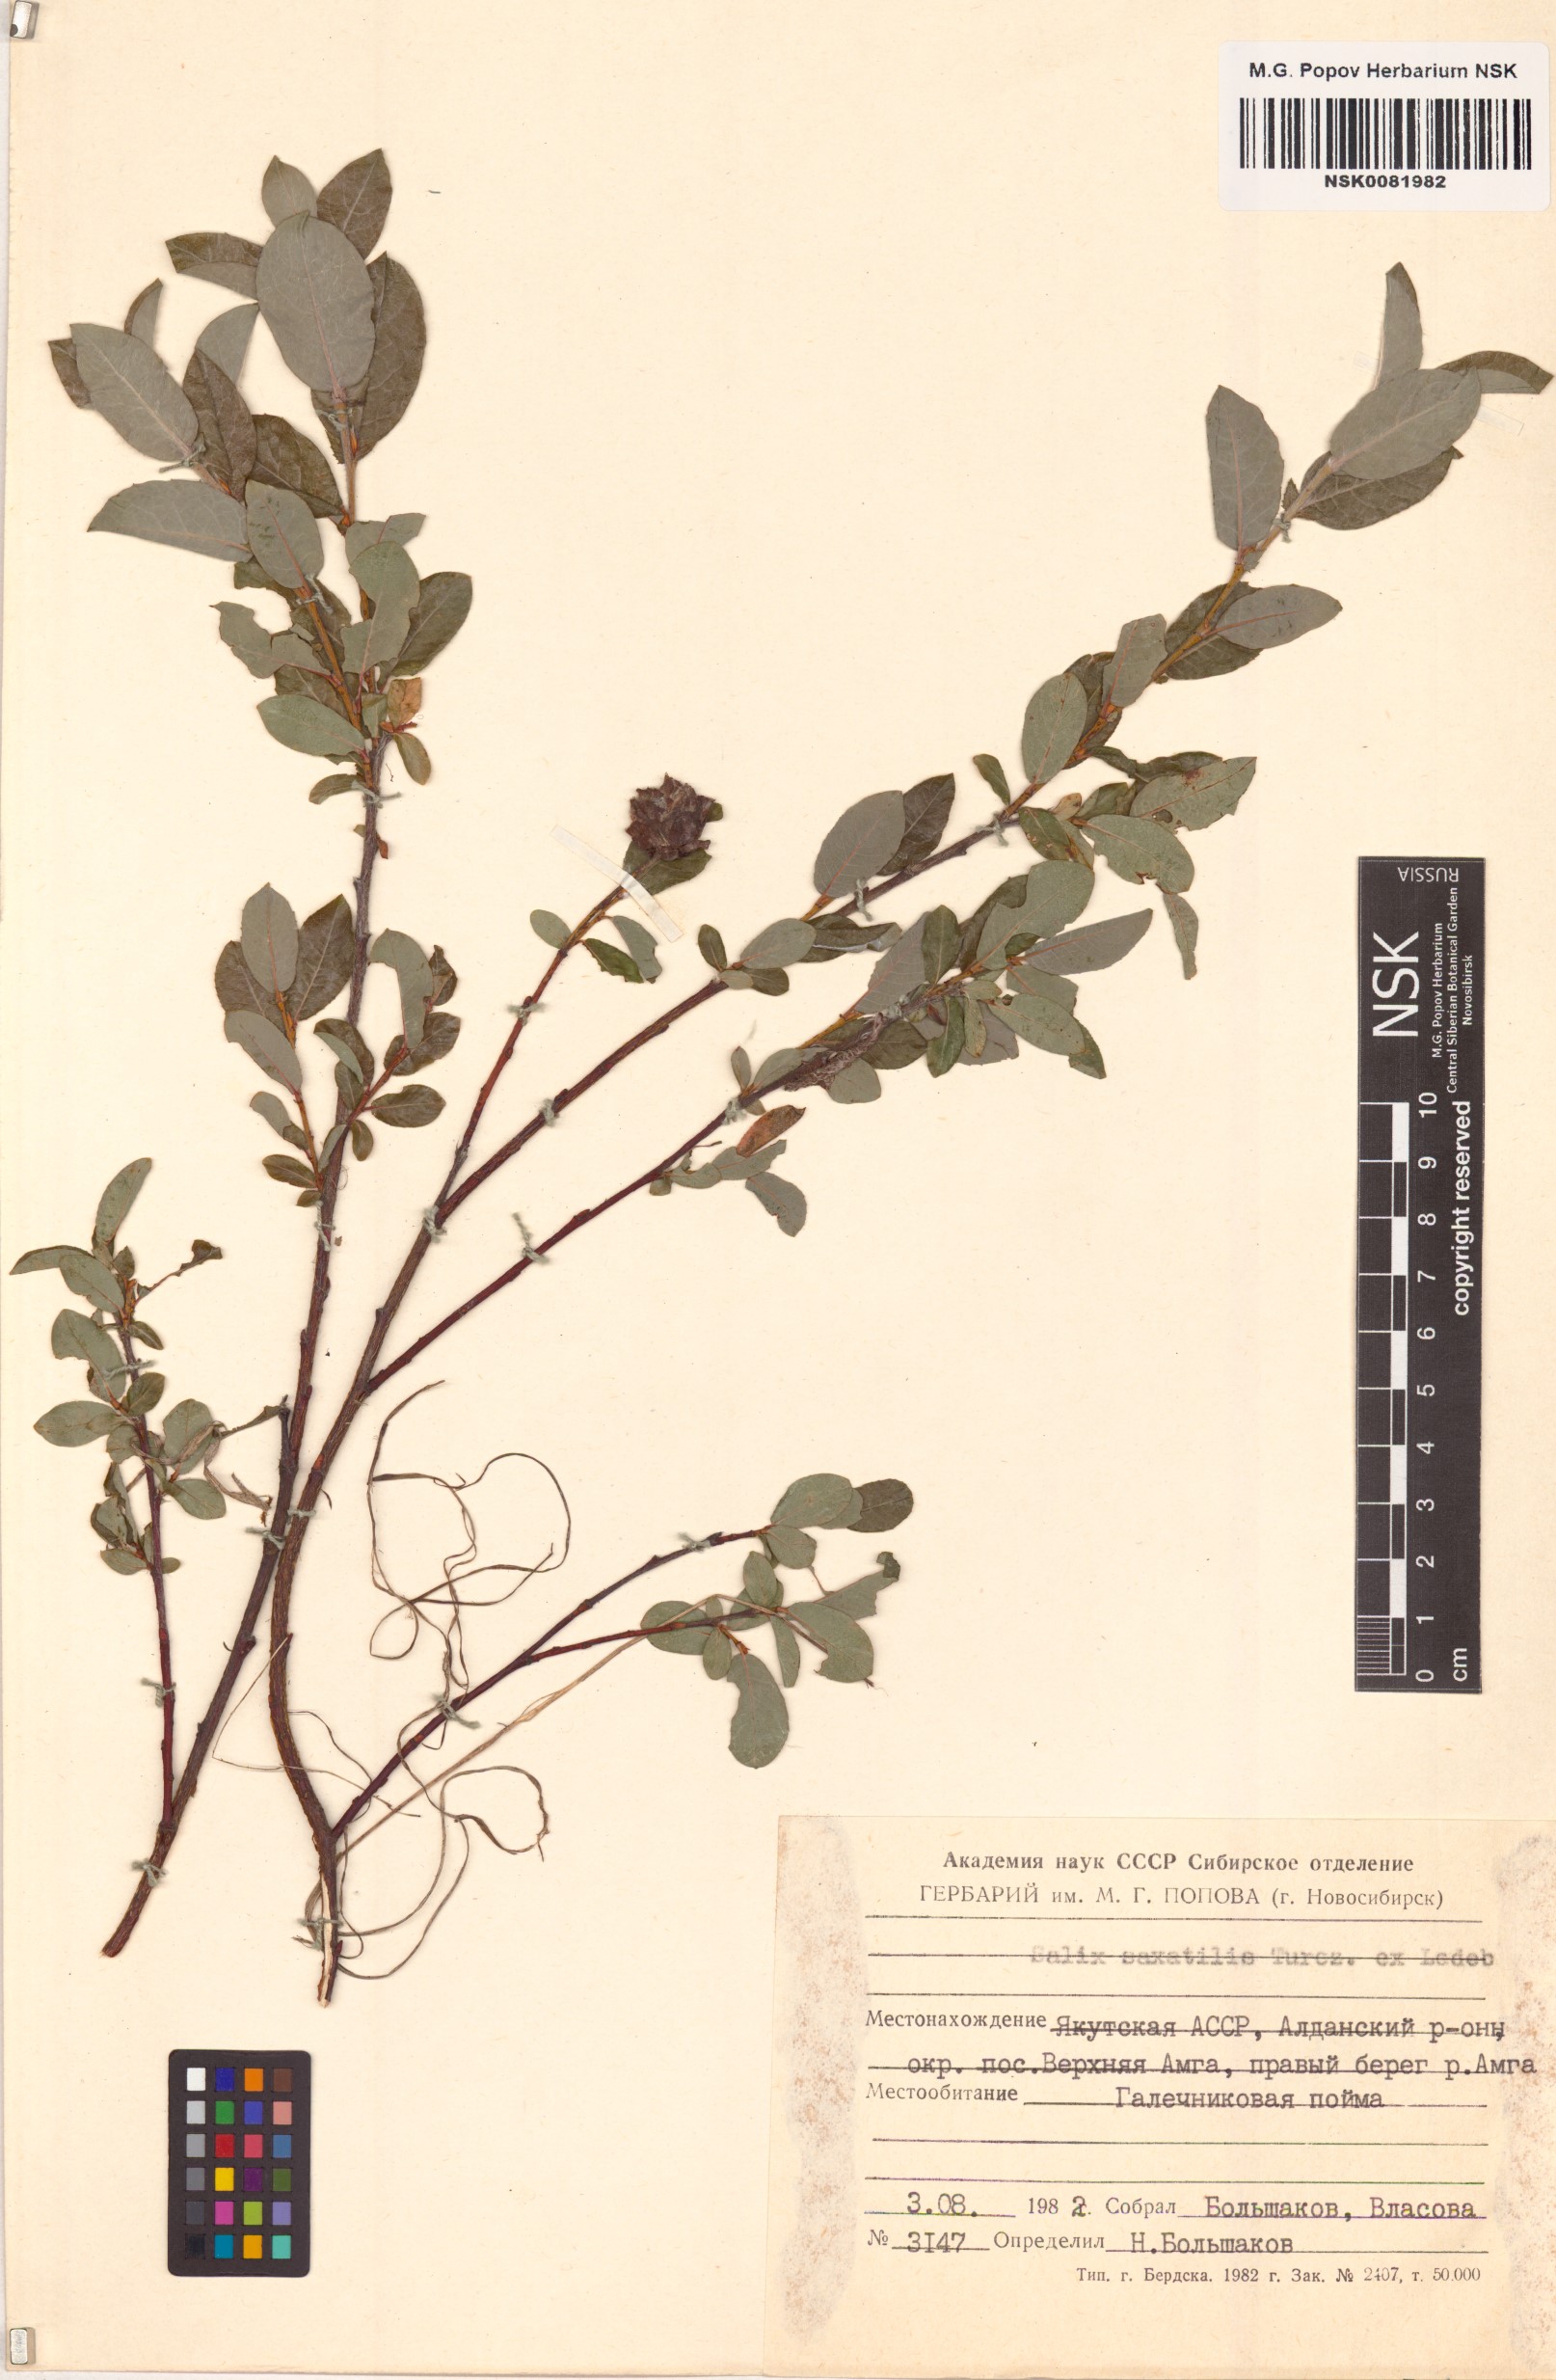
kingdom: Plantae
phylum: Tracheophyta
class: Magnoliopsida
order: Malpighiales
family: Salicaceae
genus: Salix
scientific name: Salix saxatilis
